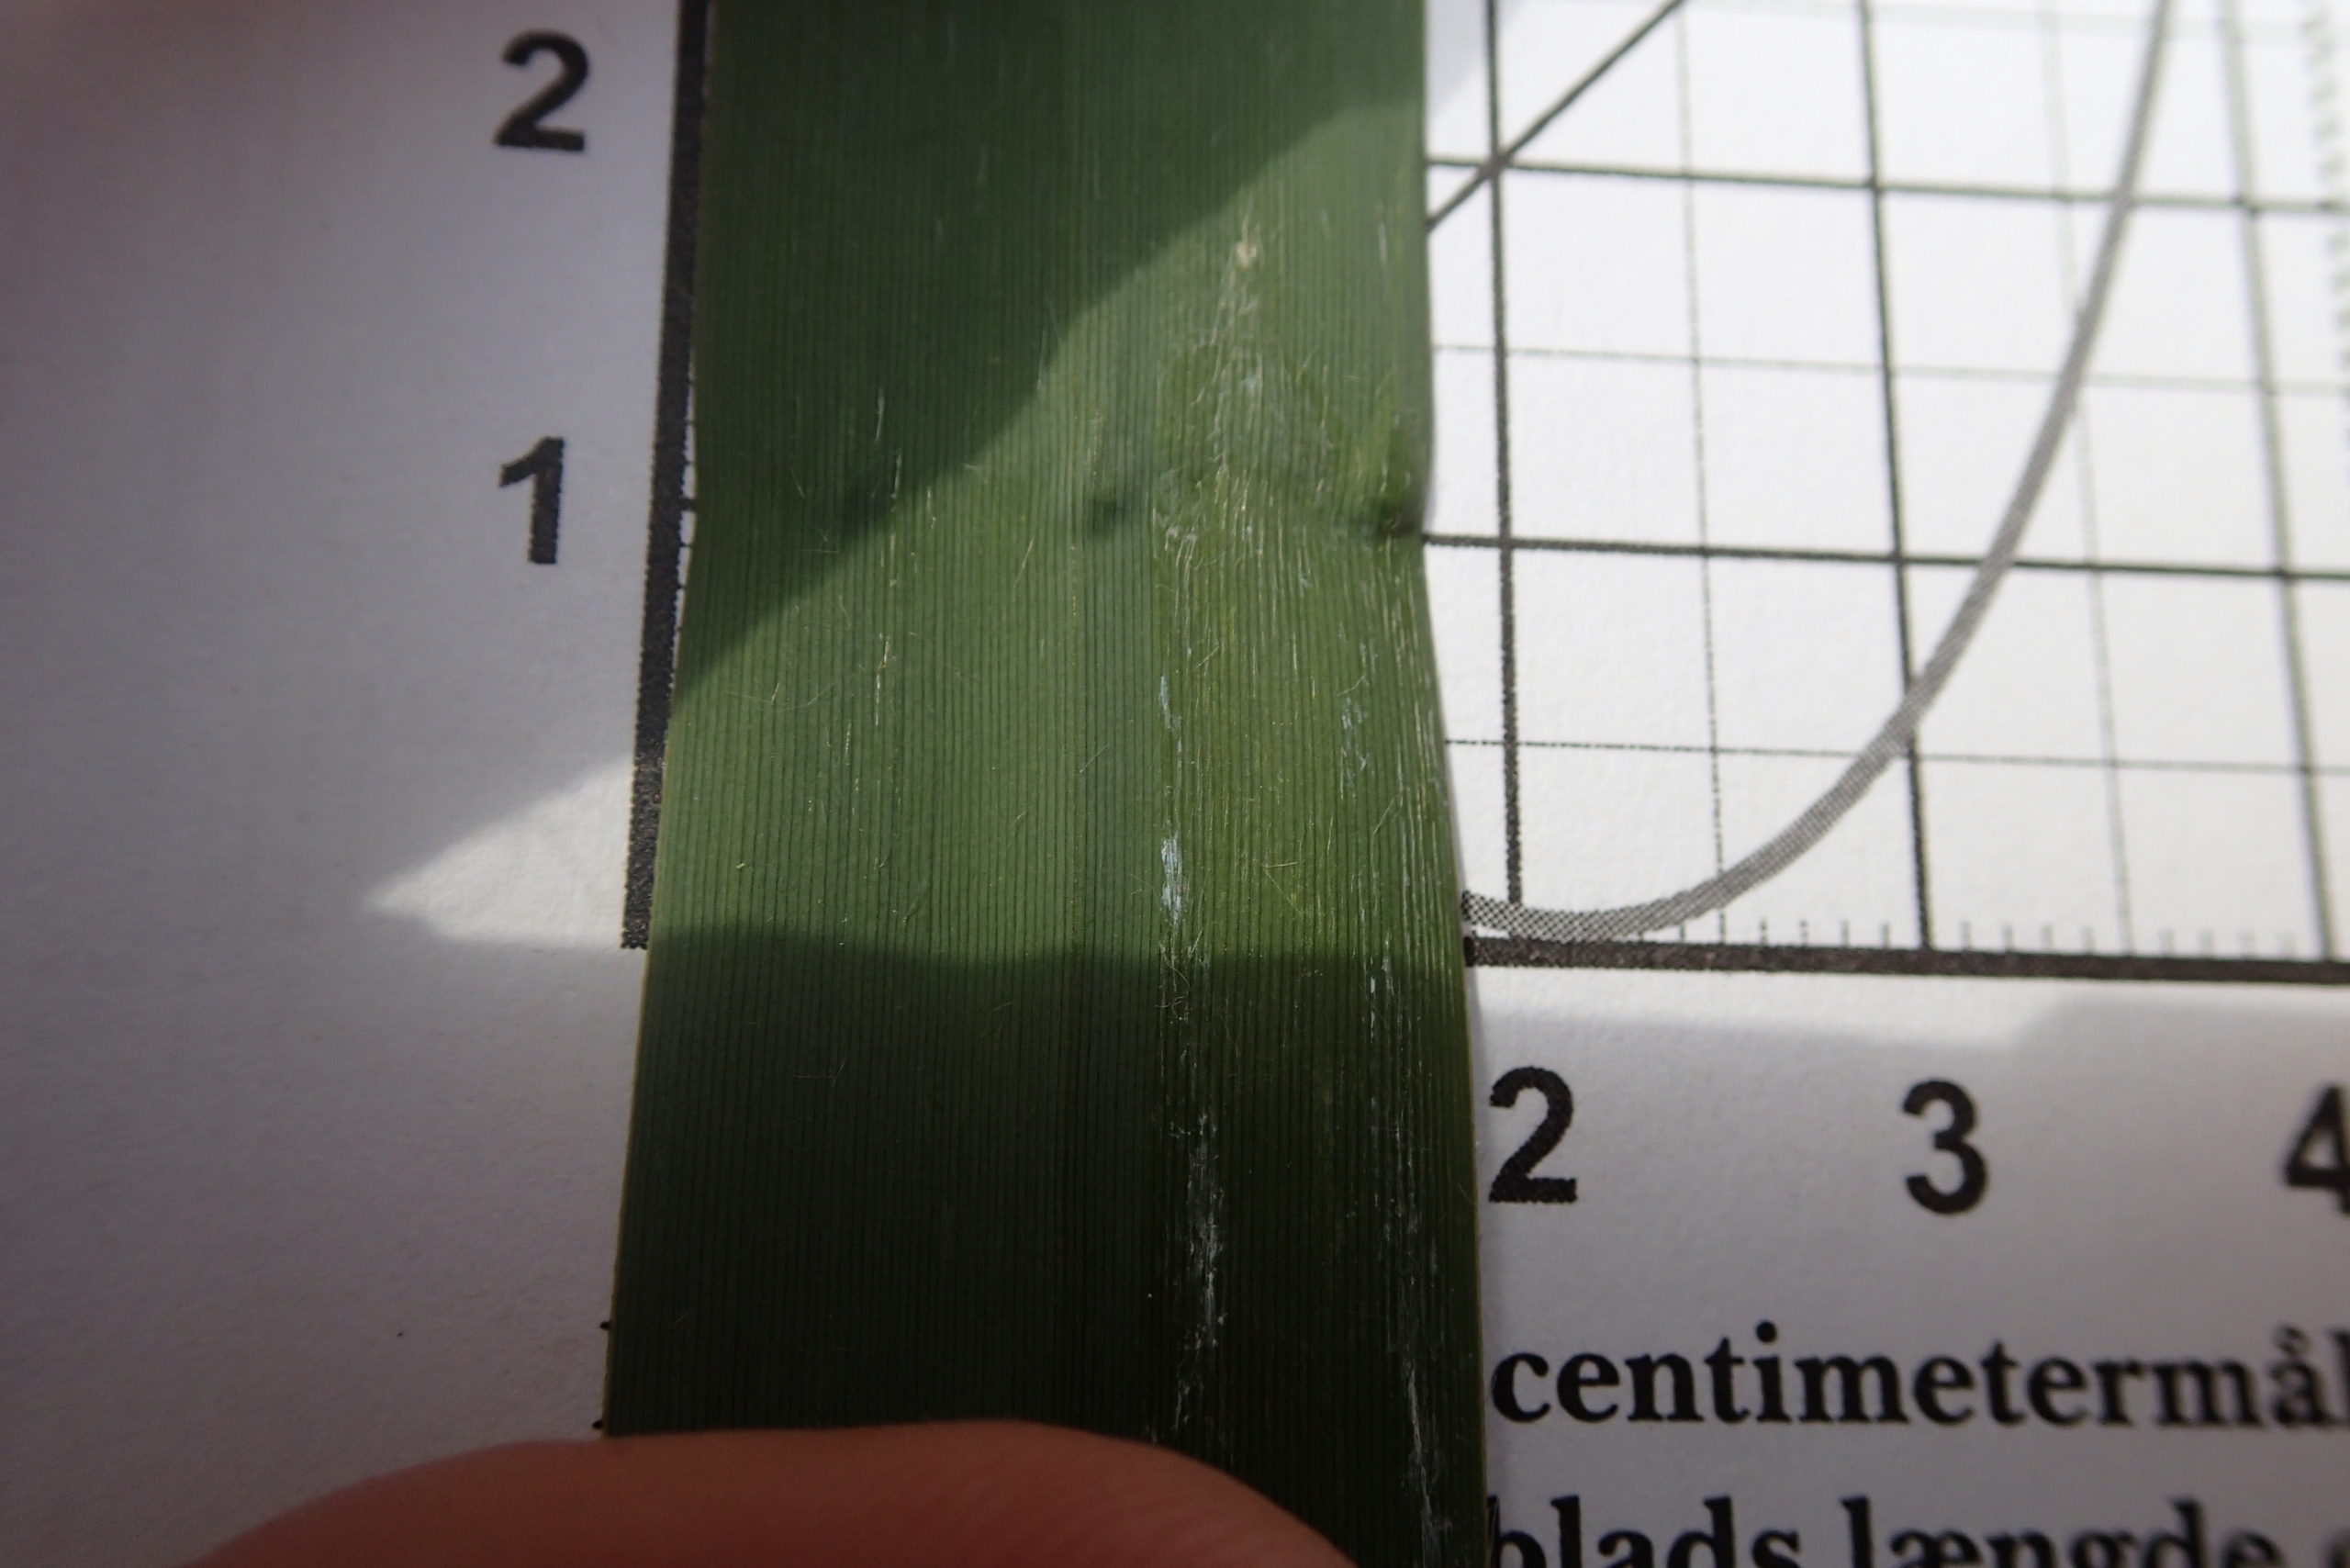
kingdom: Plantae
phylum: Tracheophyta
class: Liliopsida
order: Poales
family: Poaceae
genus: Phragmites
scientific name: Phragmites australis
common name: Tagrør
